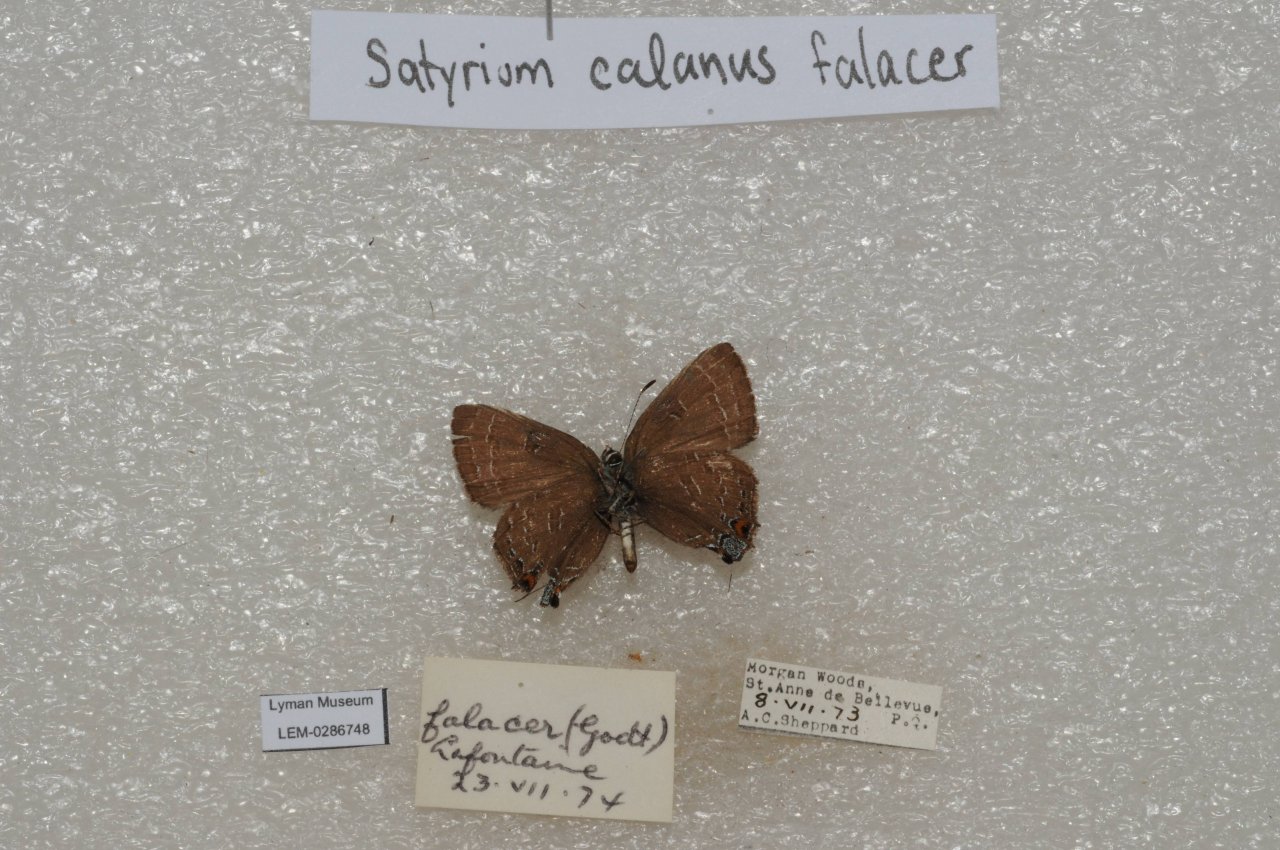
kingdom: Animalia
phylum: Arthropoda
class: Insecta
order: Lepidoptera
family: Lycaenidae
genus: Satyrium
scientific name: Satyrium calanus
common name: Banded Hairstreak
